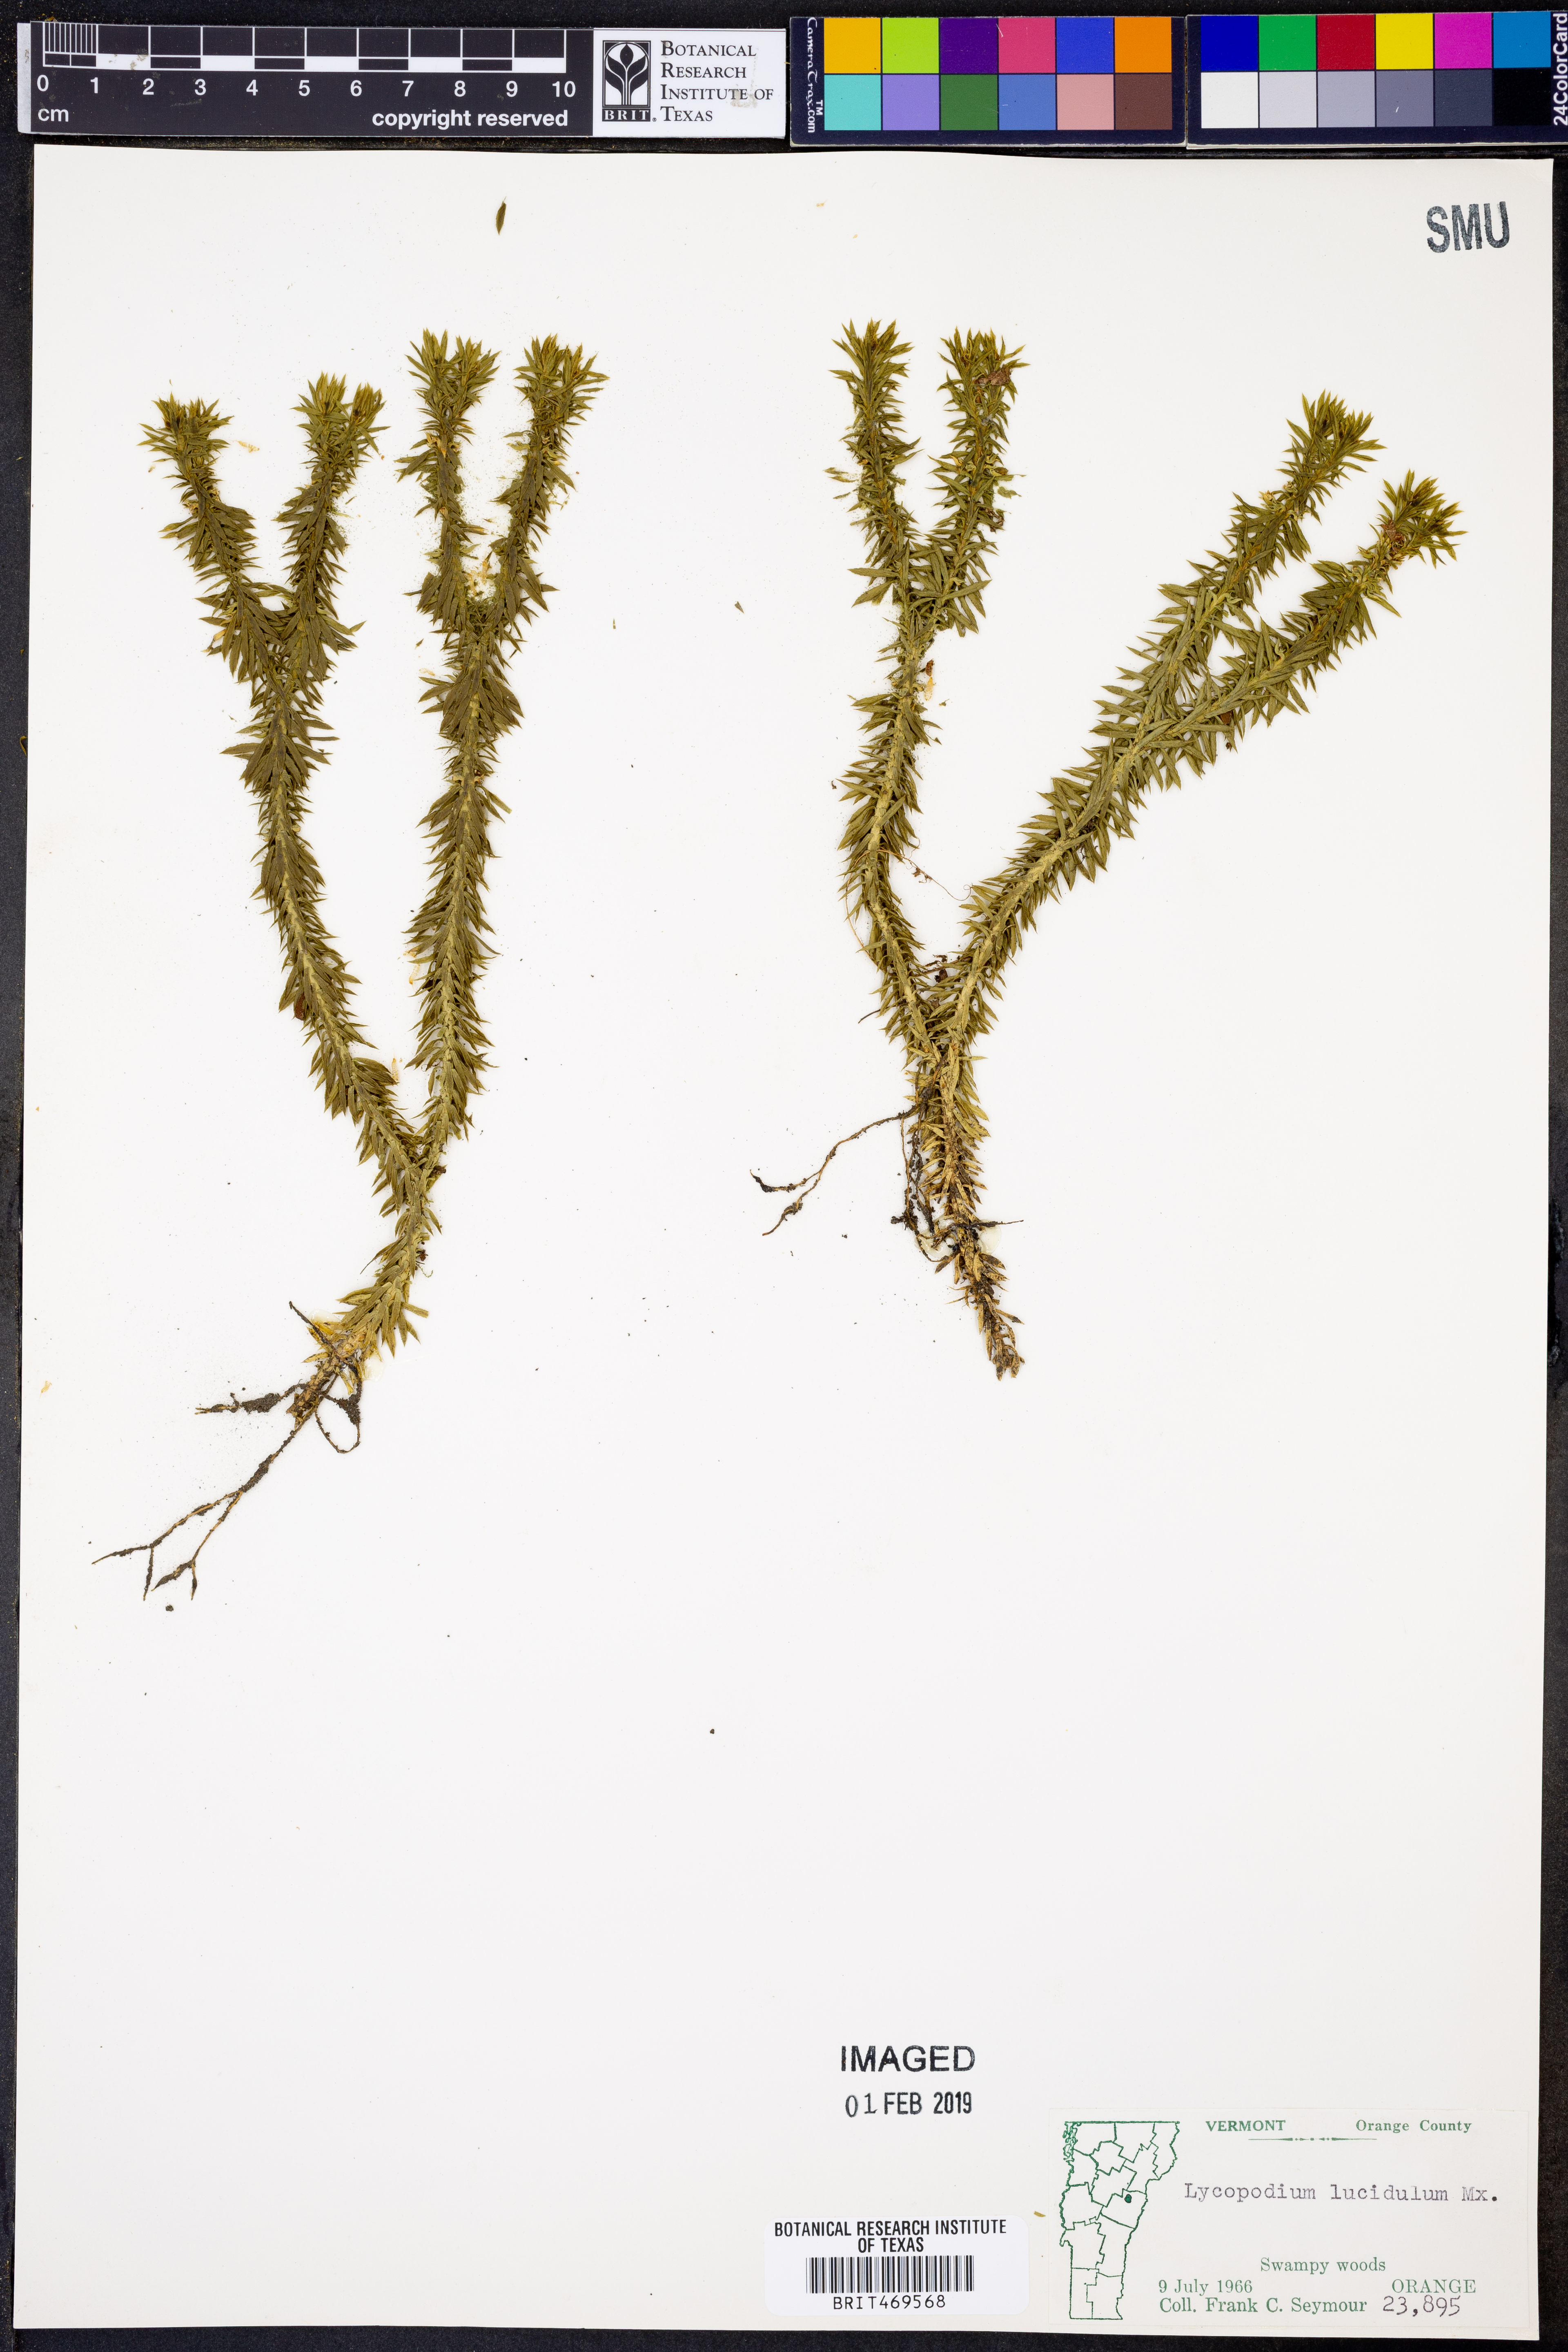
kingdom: Plantae
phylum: Tracheophyta
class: Lycopodiopsida
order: Lycopodiales
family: Lycopodiaceae
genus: Huperzia
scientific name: Huperzia lucidula
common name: Shining clubmoss
